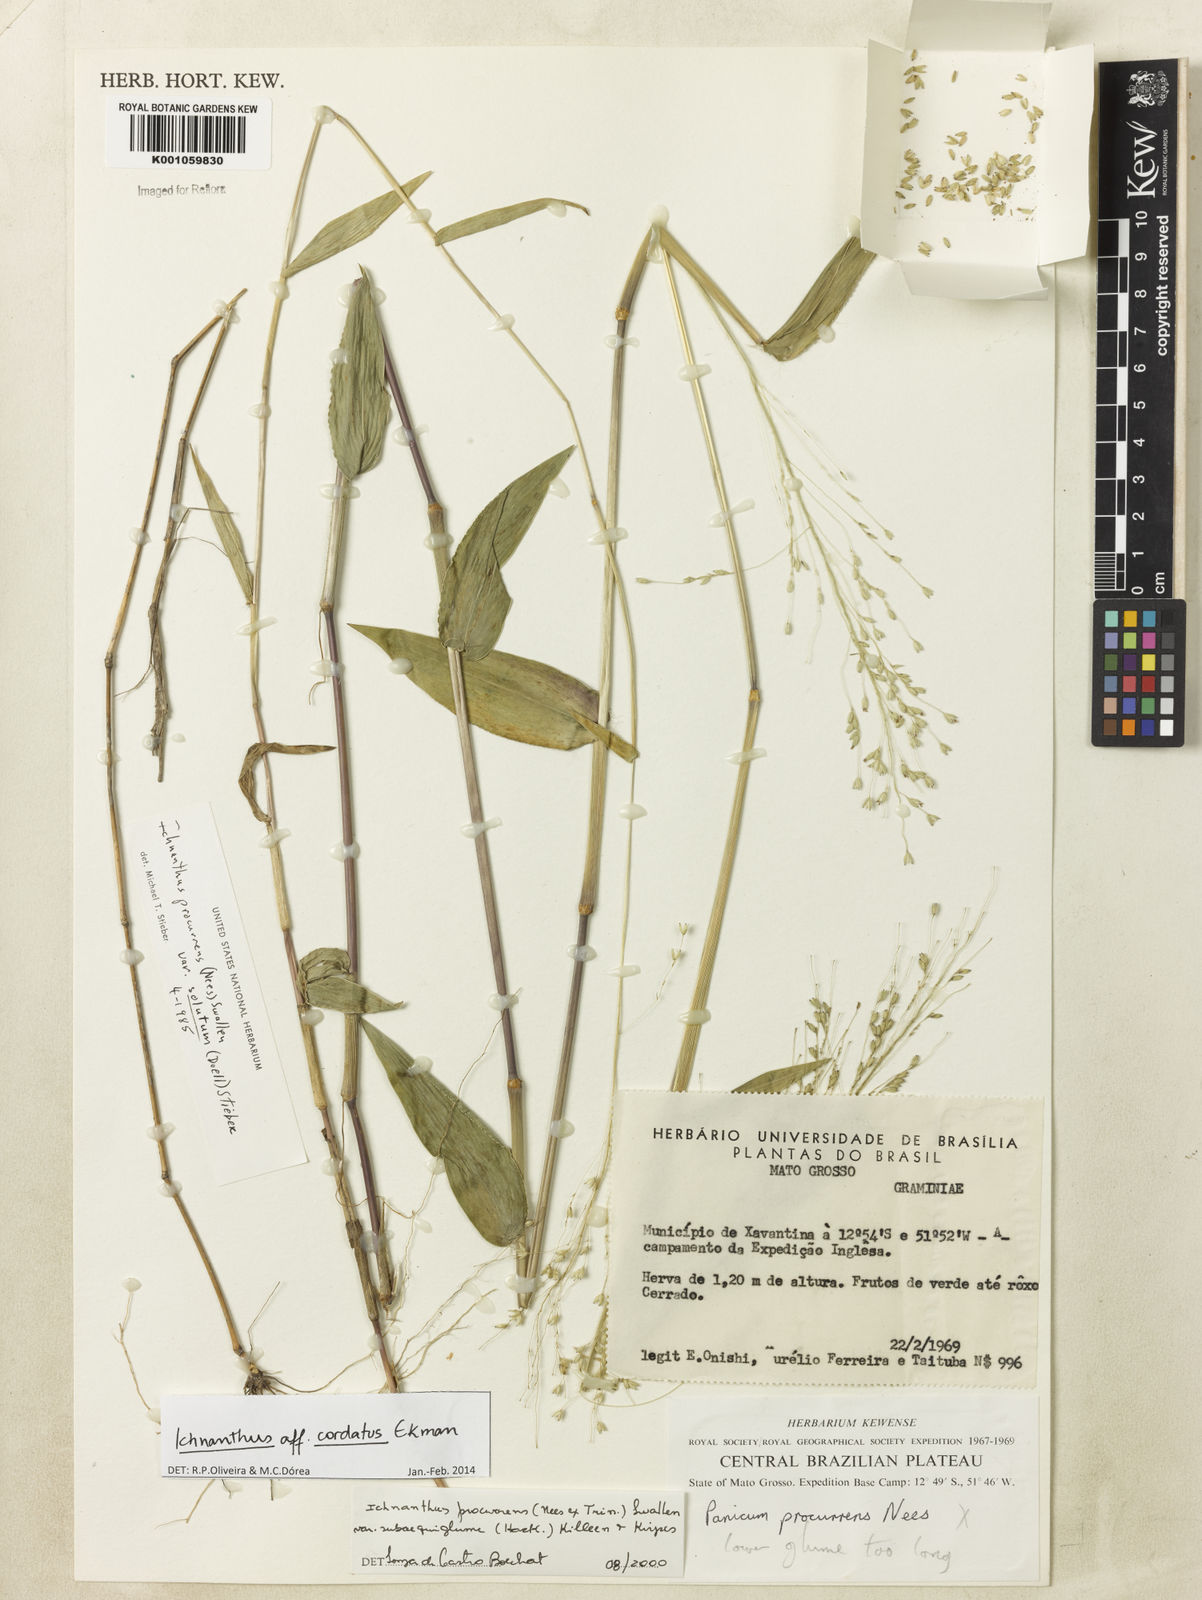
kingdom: Plantae
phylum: Tracheophyta
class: Liliopsida
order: Poales
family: Poaceae
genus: Oedochloa
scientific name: Oedochloa mayarensis
